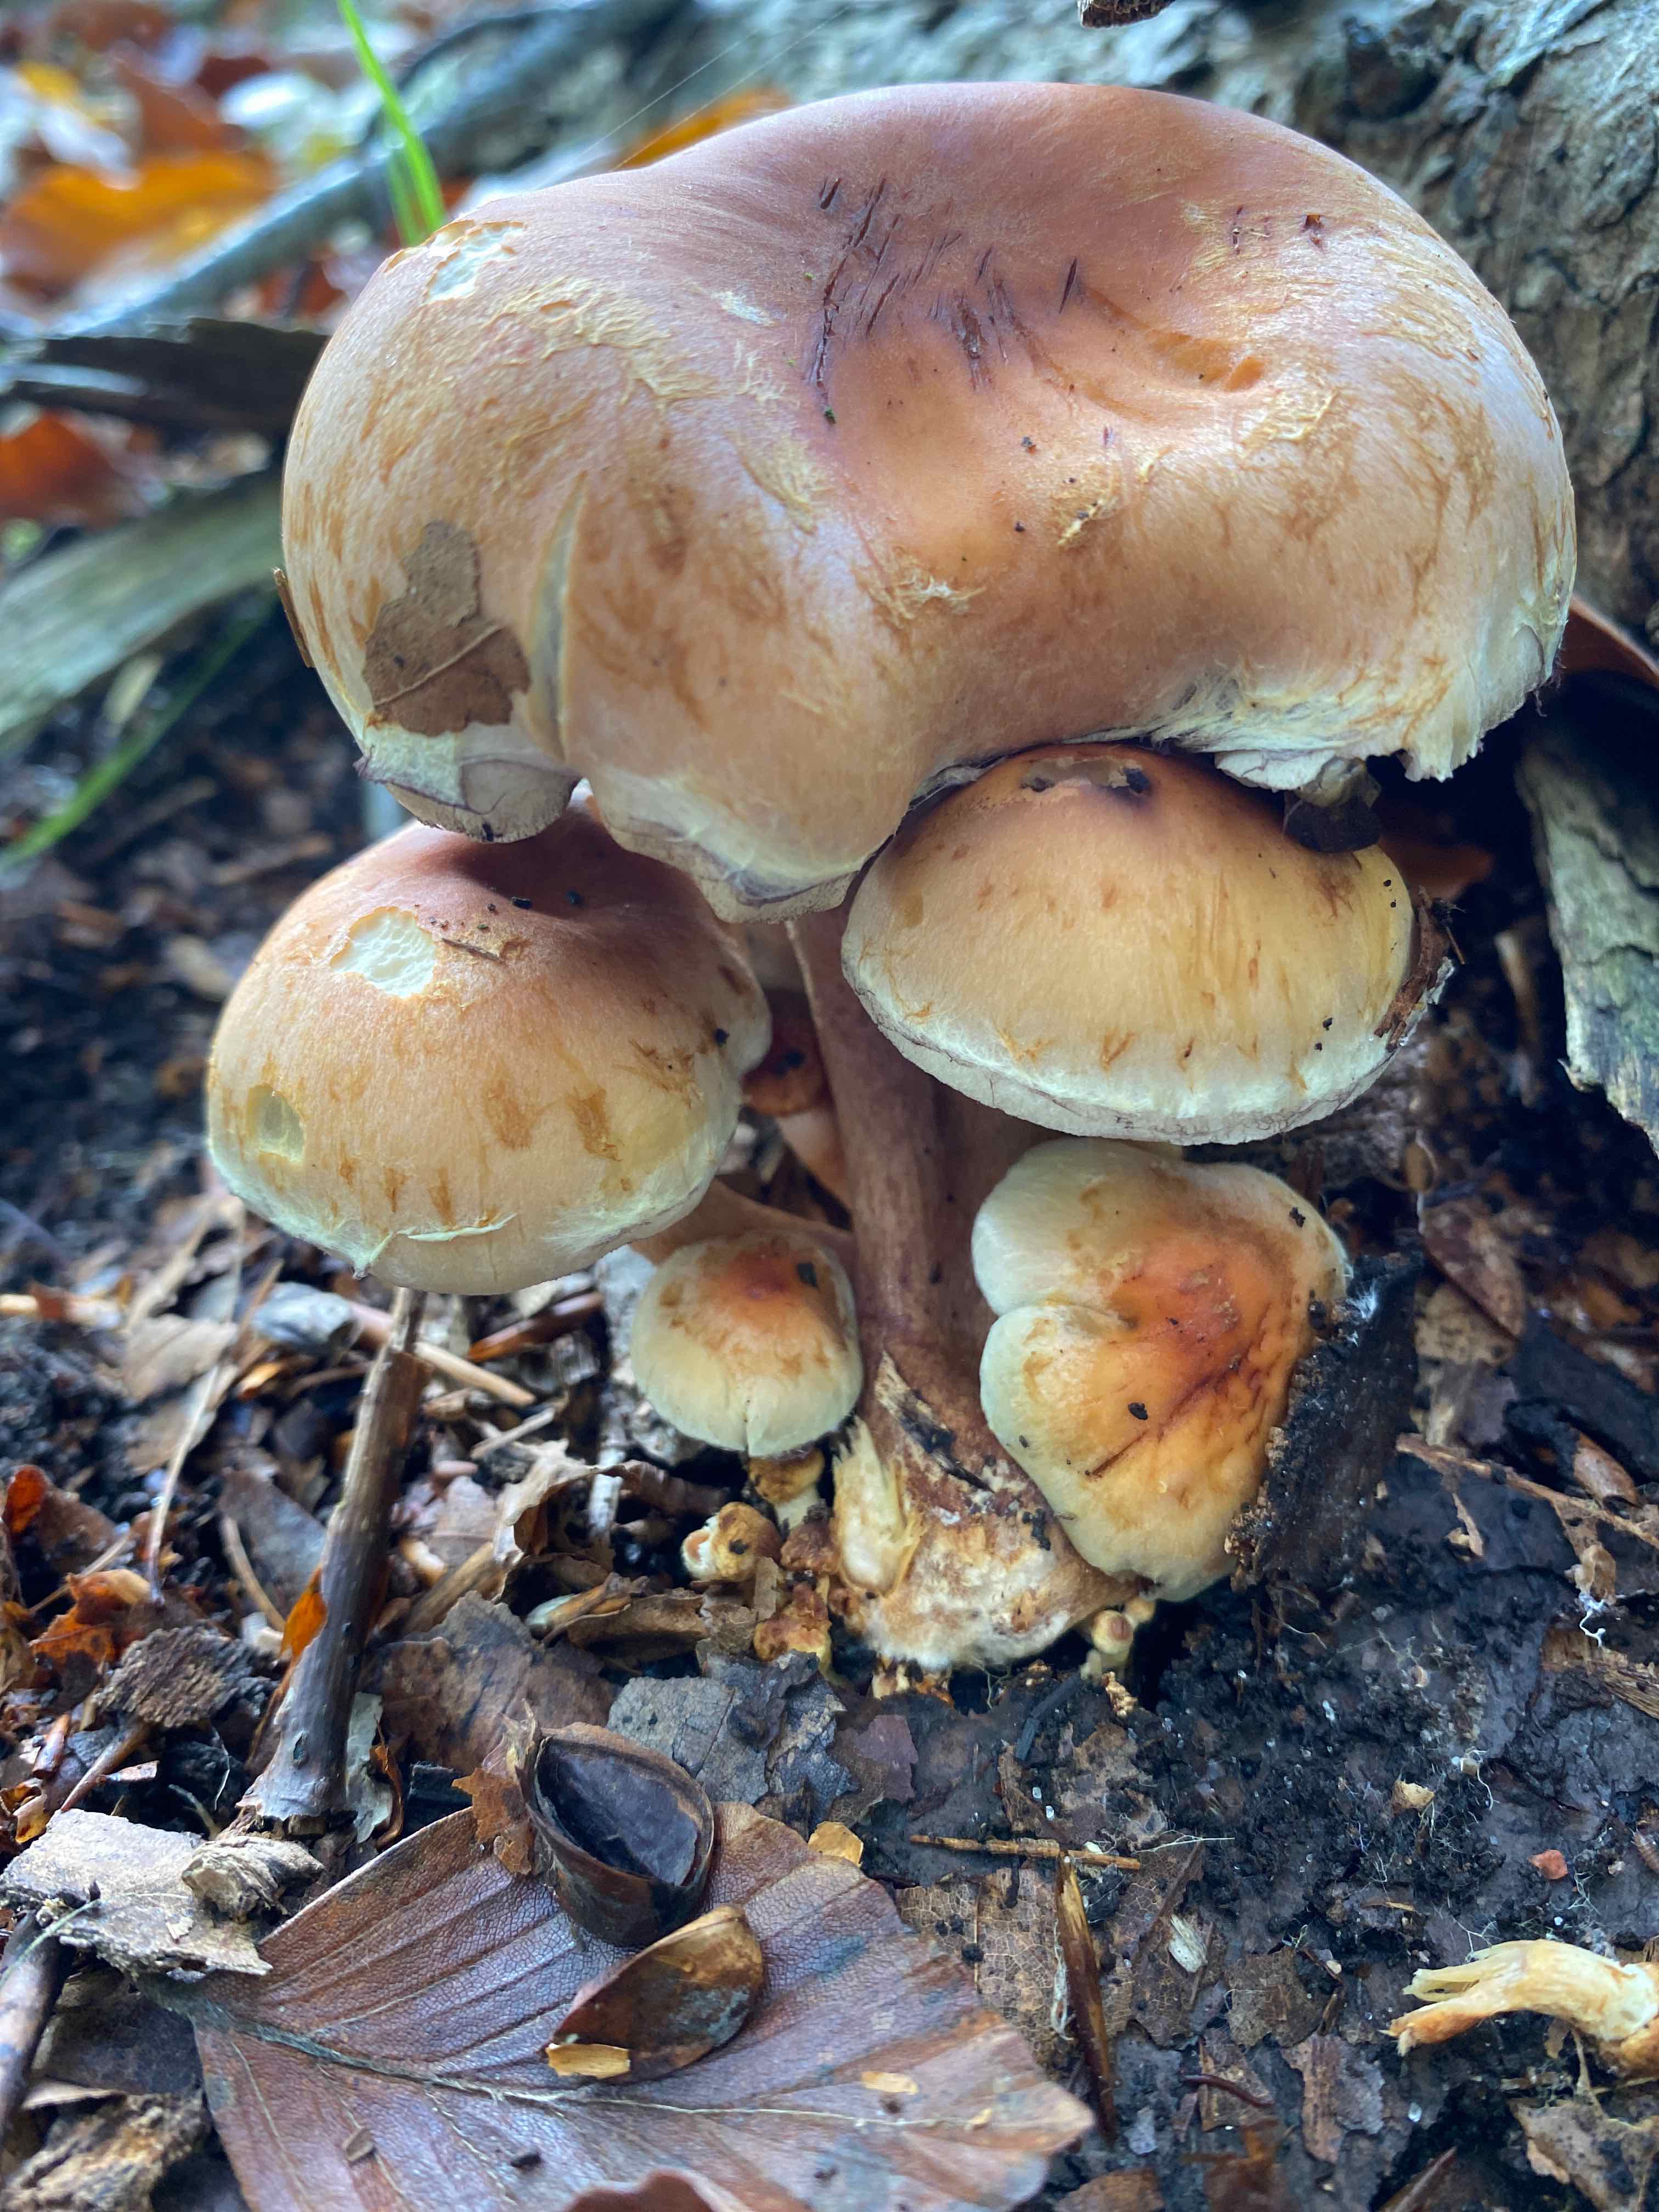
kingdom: Fungi
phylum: Basidiomycota
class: Agaricomycetes
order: Agaricales
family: Strophariaceae
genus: Hypholoma
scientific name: Hypholoma lateritium
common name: teglrød svovlhat
